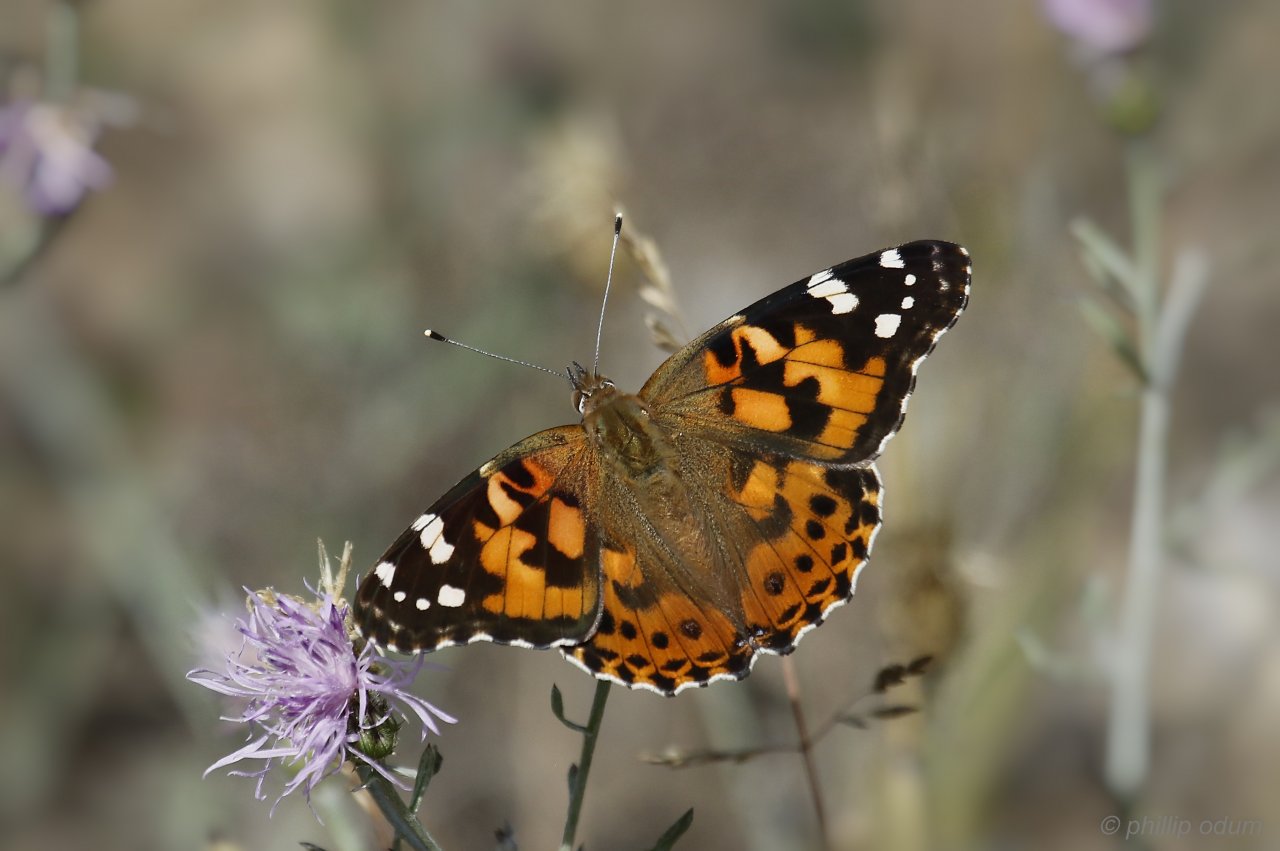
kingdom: Animalia
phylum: Arthropoda
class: Insecta
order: Lepidoptera
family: Nymphalidae
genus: Vanessa
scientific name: Vanessa cardui
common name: Painted Lady
